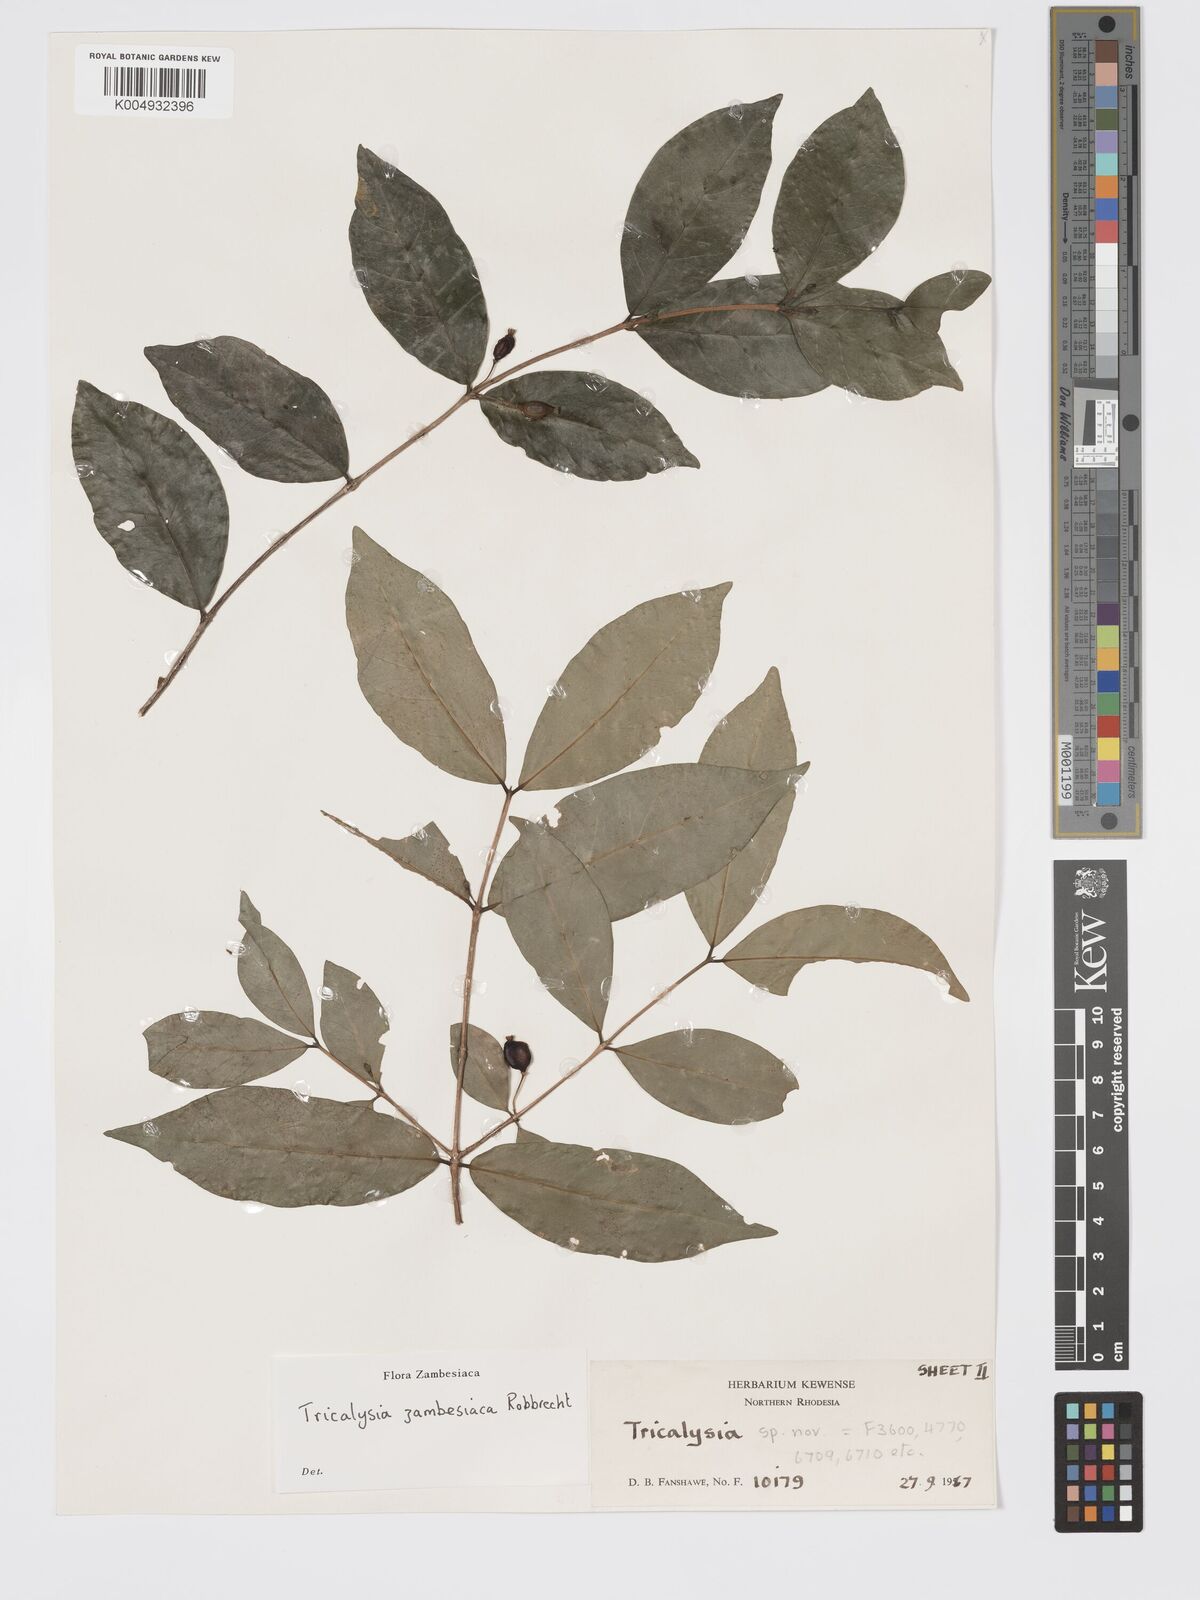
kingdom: Plantae
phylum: Tracheophyta
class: Magnoliopsida
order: Gentianales
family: Rubiaceae
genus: Tricalysia
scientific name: Tricalysia zambesiaca
